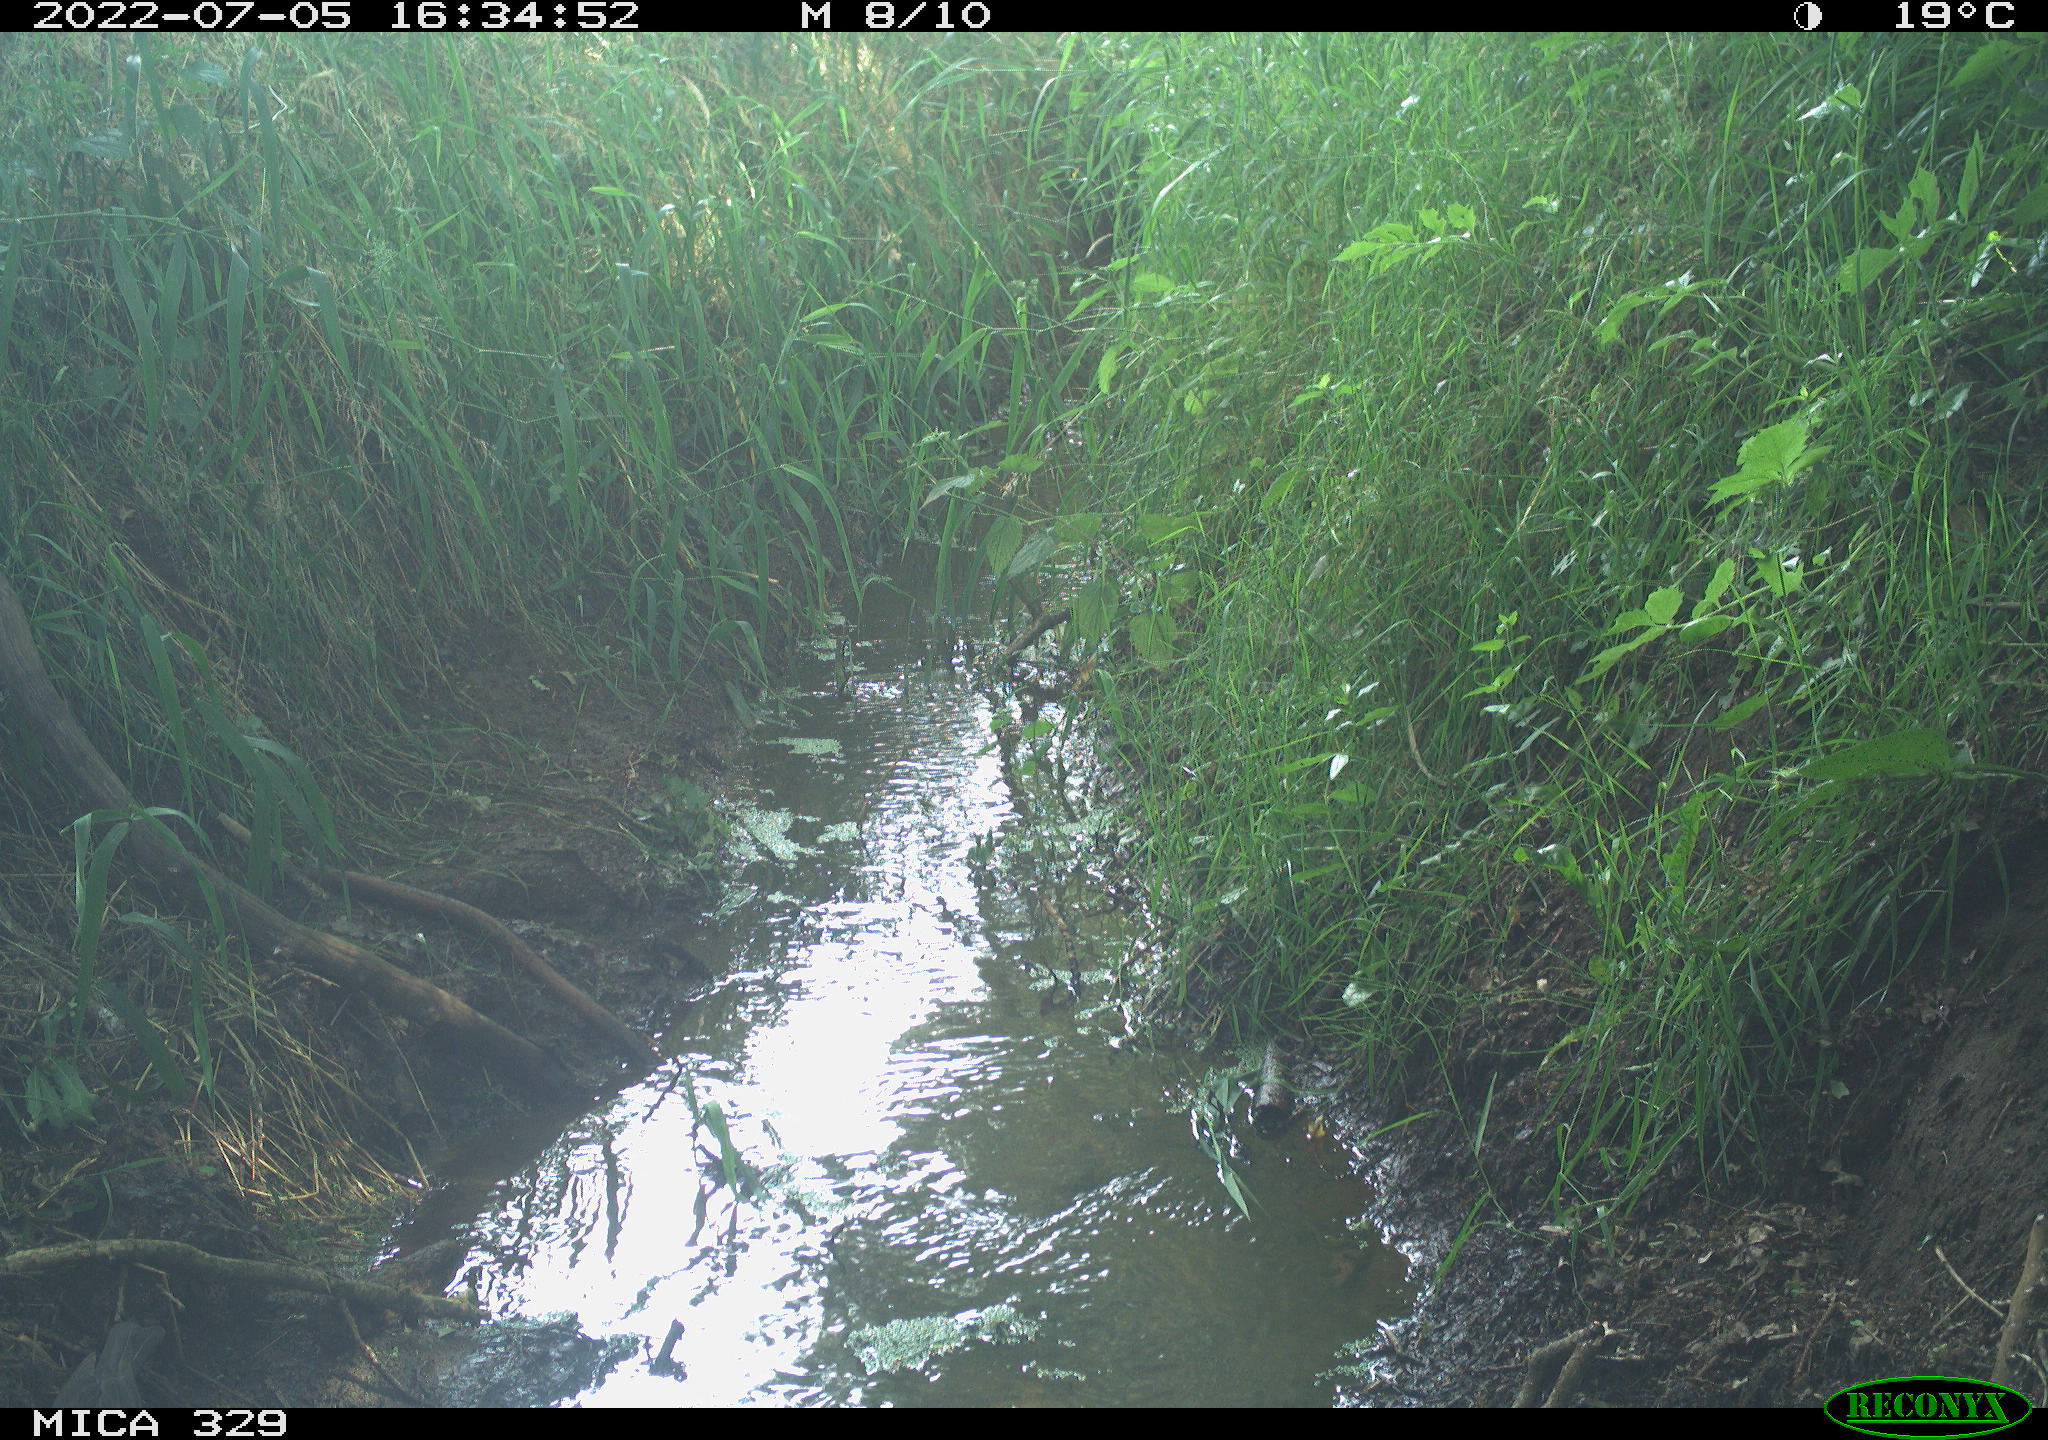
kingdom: Animalia
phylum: Chordata
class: Aves
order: Passeriformes
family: Turdidae
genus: Turdus
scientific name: Turdus merula
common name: Common blackbird
